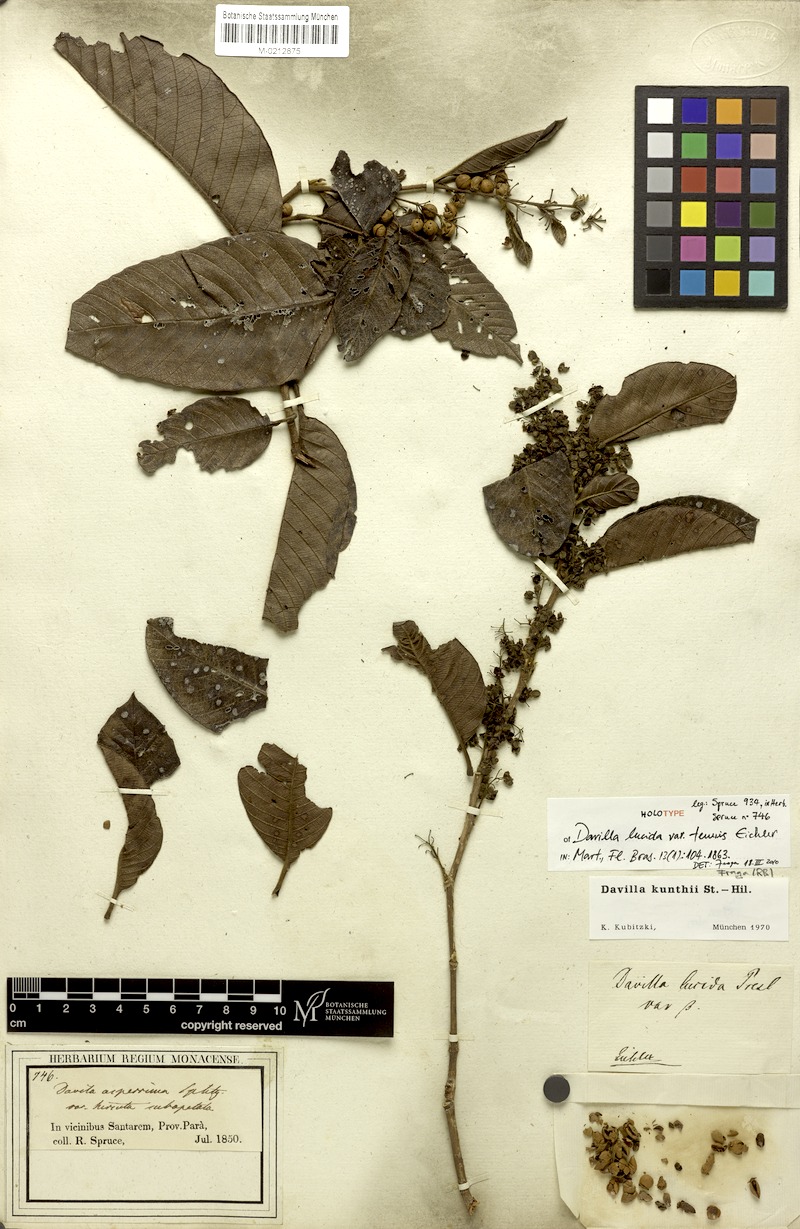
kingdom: Plantae
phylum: Tracheophyta
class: Magnoliopsida
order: Dilleniales
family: Dilleniaceae
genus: Davilla
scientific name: Davilla kunthii
